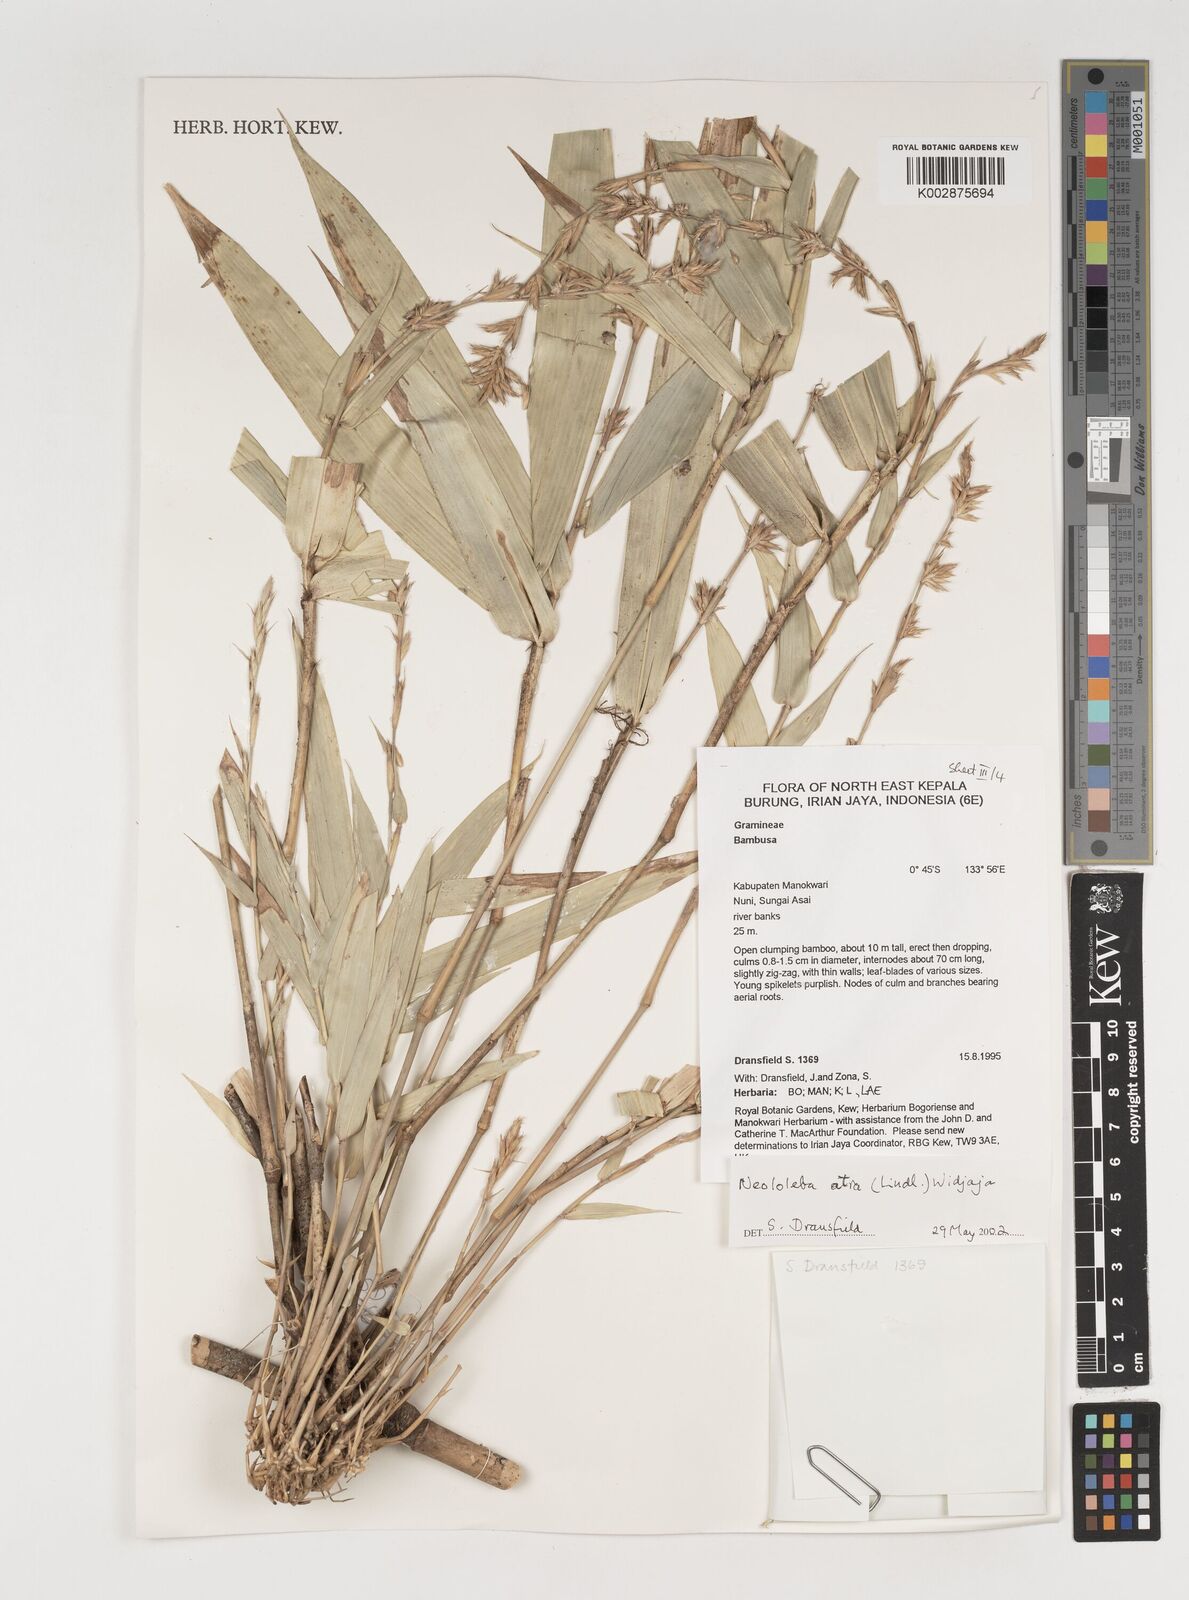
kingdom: Plantae
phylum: Tracheophyta
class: Liliopsida
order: Poales
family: Poaceae
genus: Neololeba
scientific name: Neololeba atra
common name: Cape bamboo
